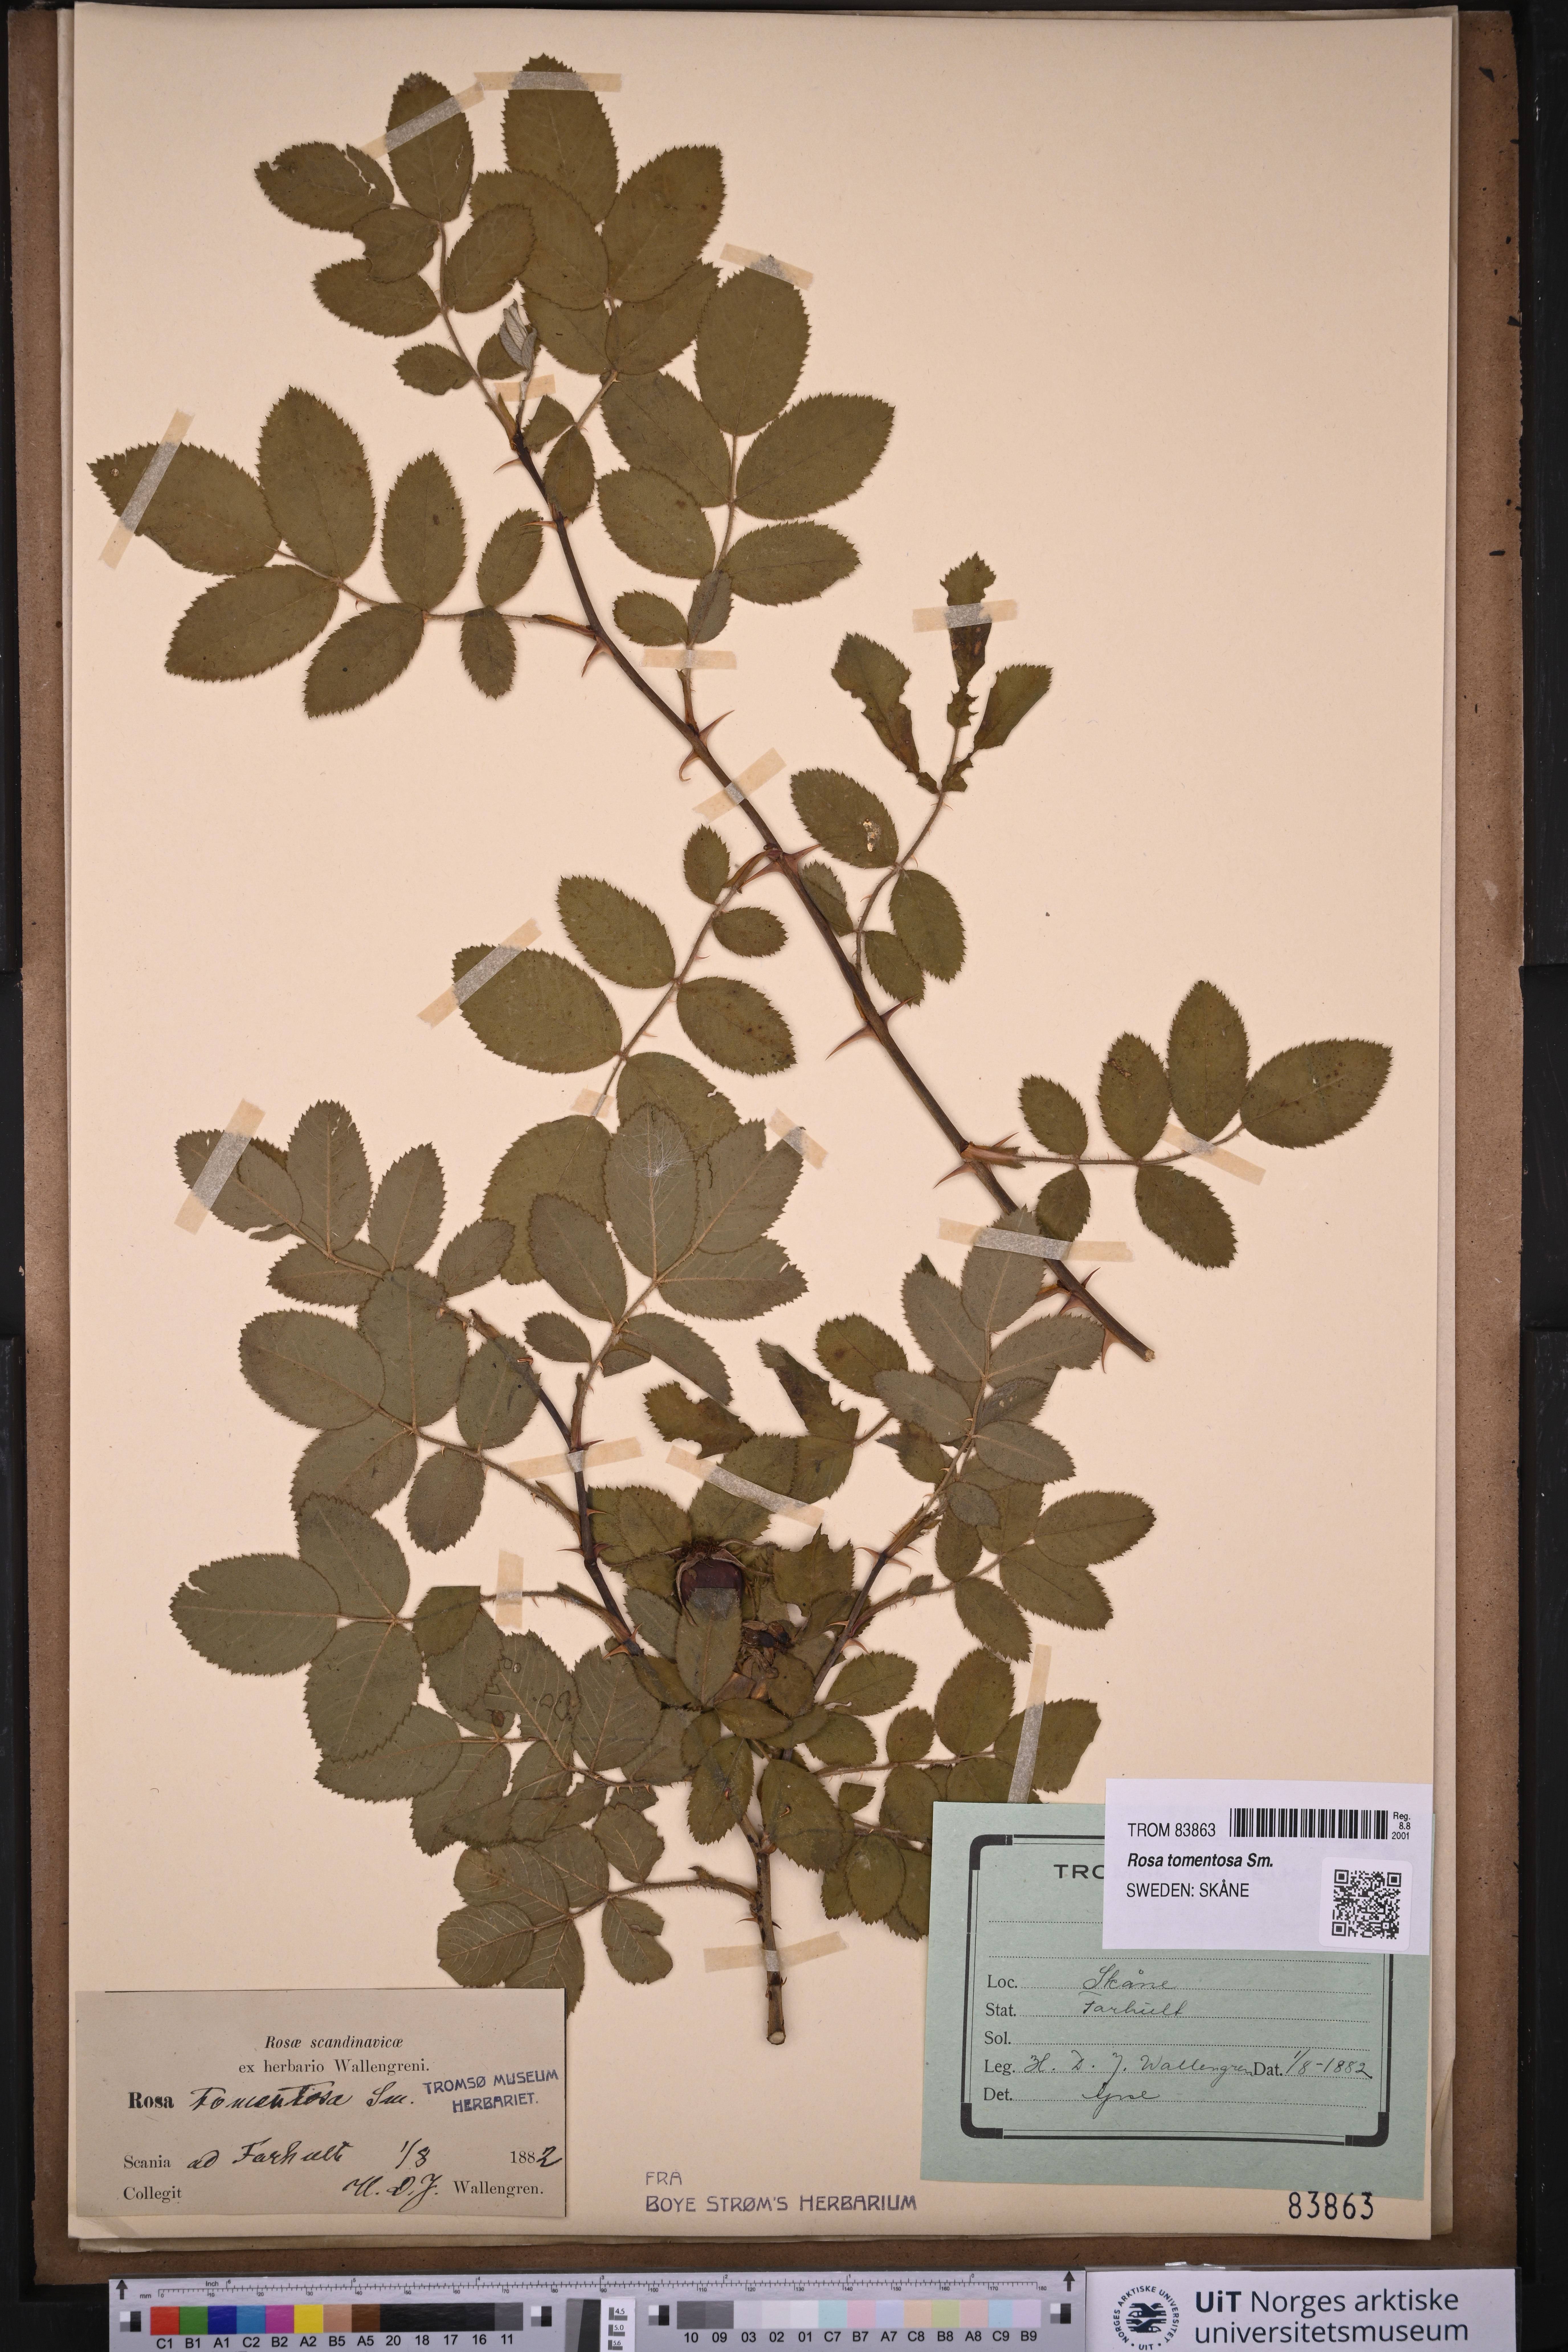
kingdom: Plantae
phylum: Tracheophyta
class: Magnoliopsida
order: Rosales
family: Rosaceae
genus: Rosa
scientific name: Rosa sherardii
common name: Sherard's downy rose
